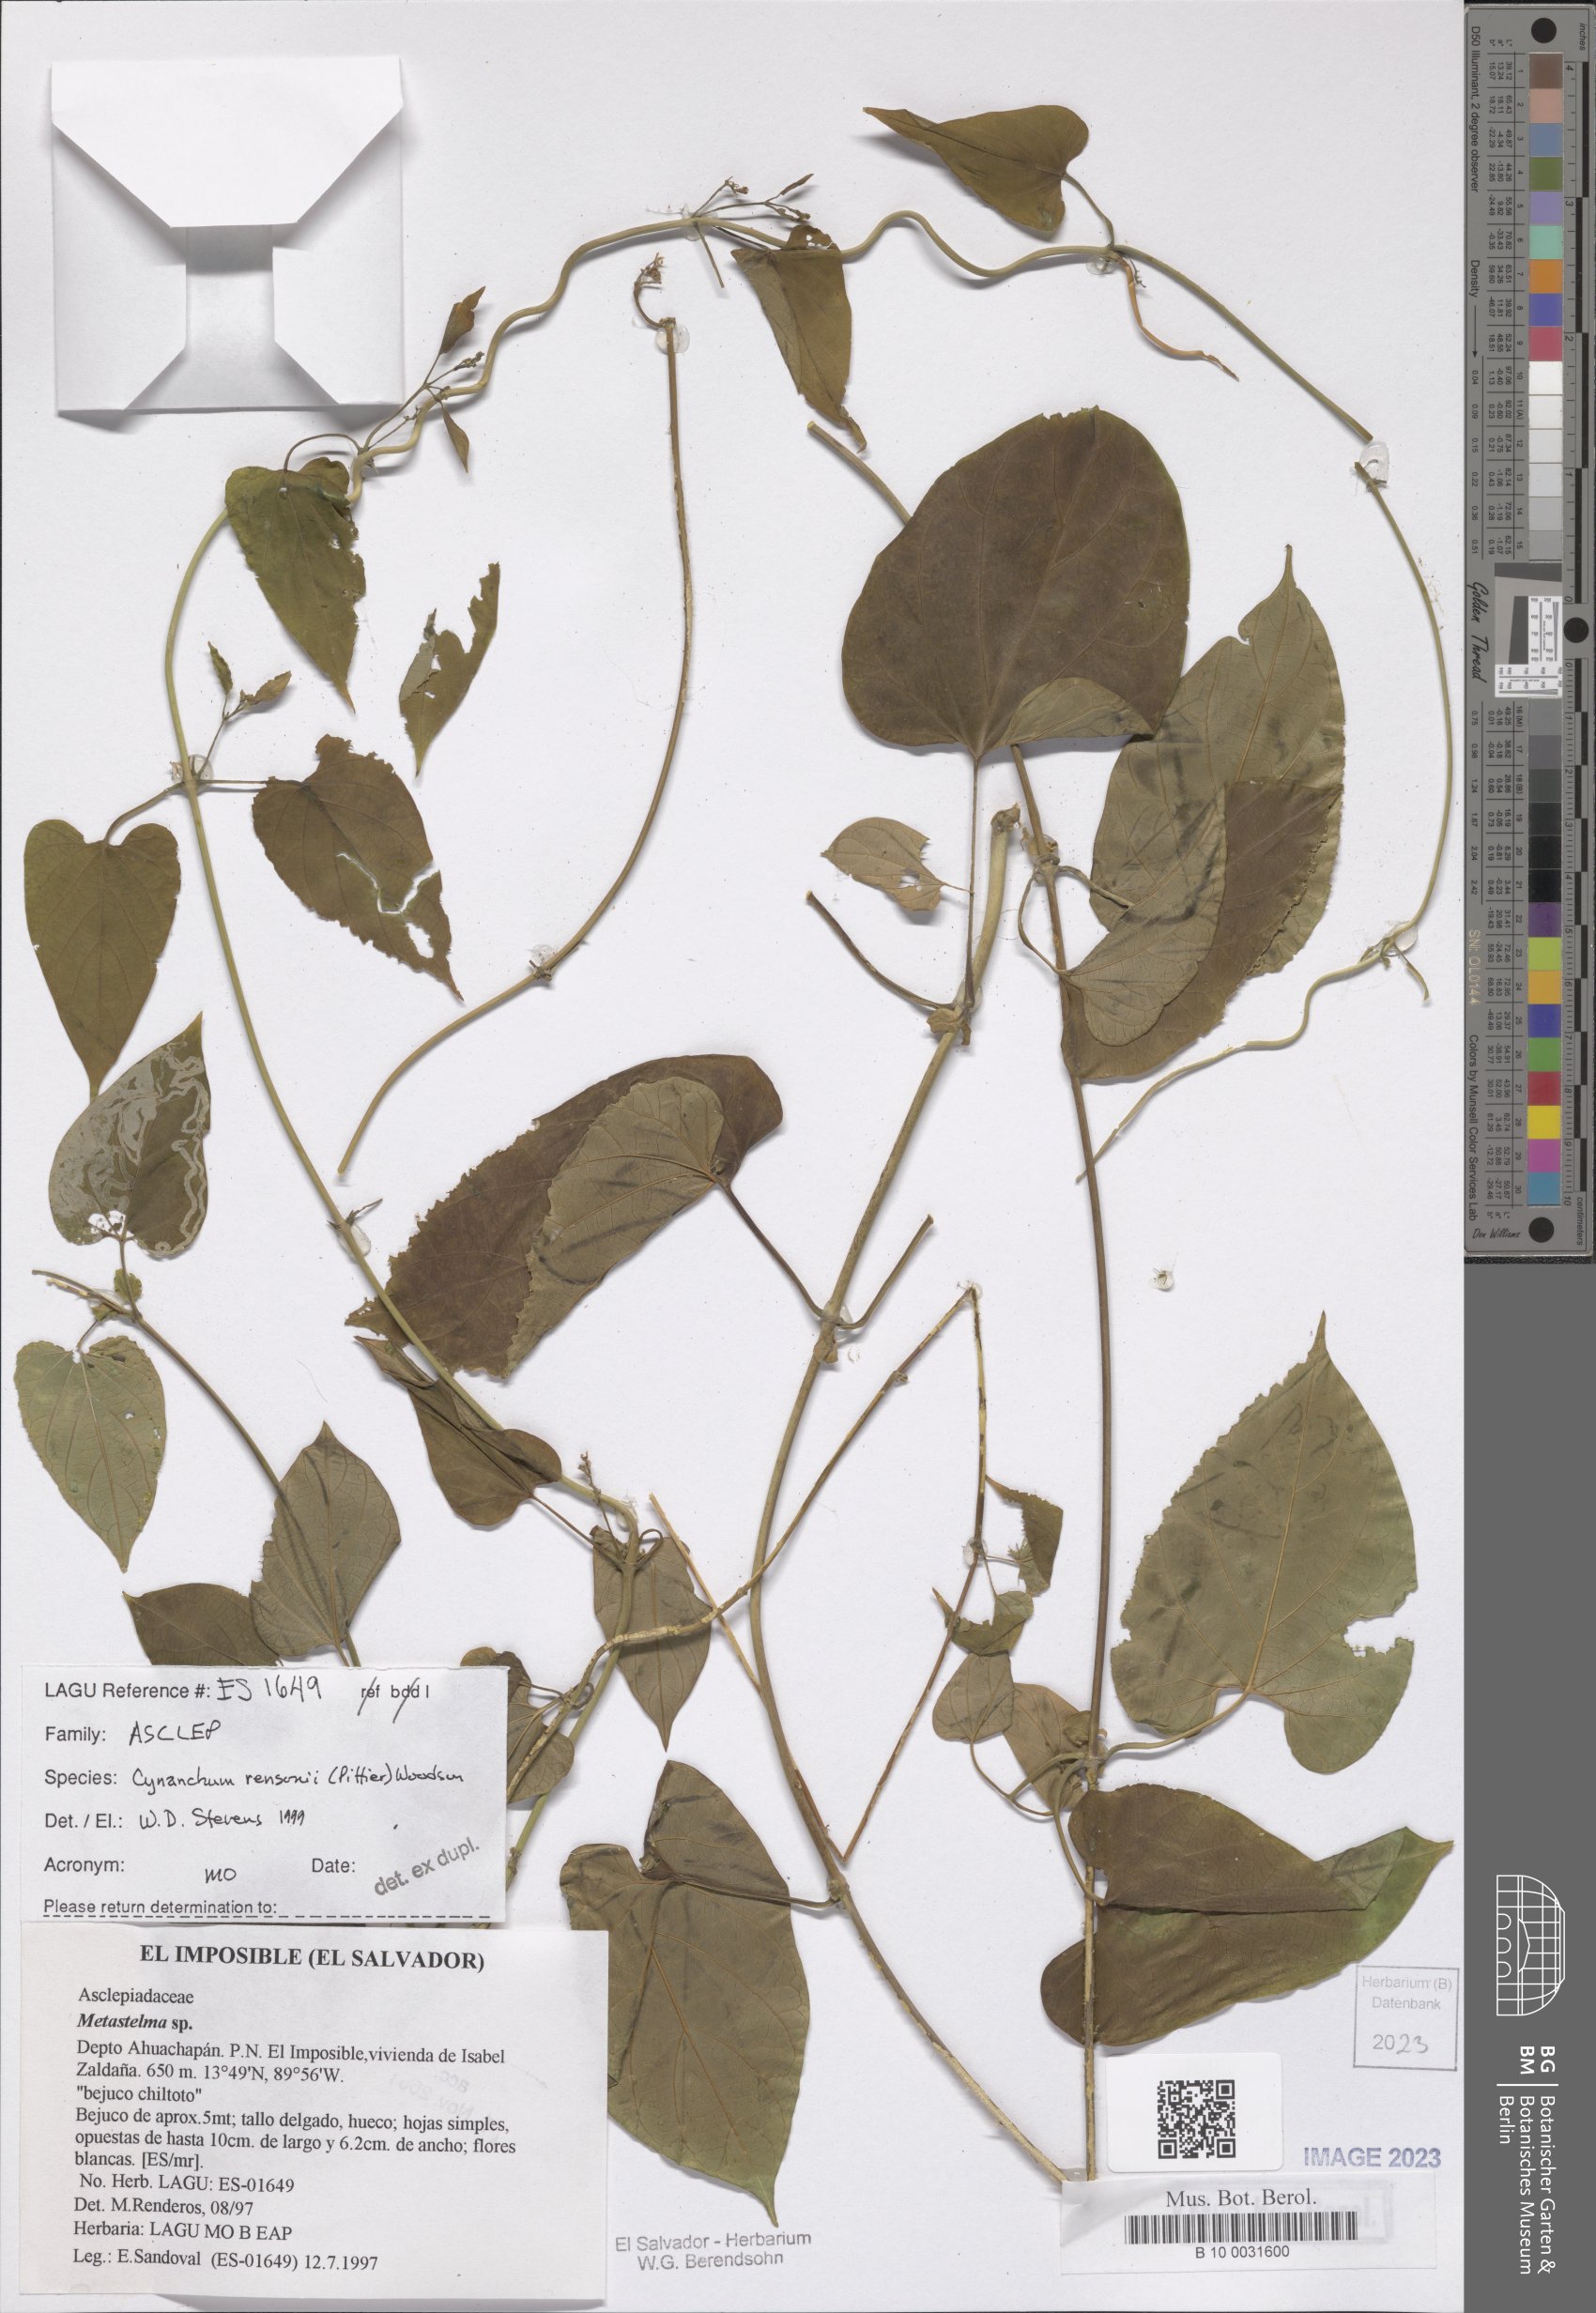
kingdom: Plantae
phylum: Tracheophyta
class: Magnoliopsida
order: Gentianales
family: Apocynaceae
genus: Cynanchum
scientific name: Cynanchum rensonii
